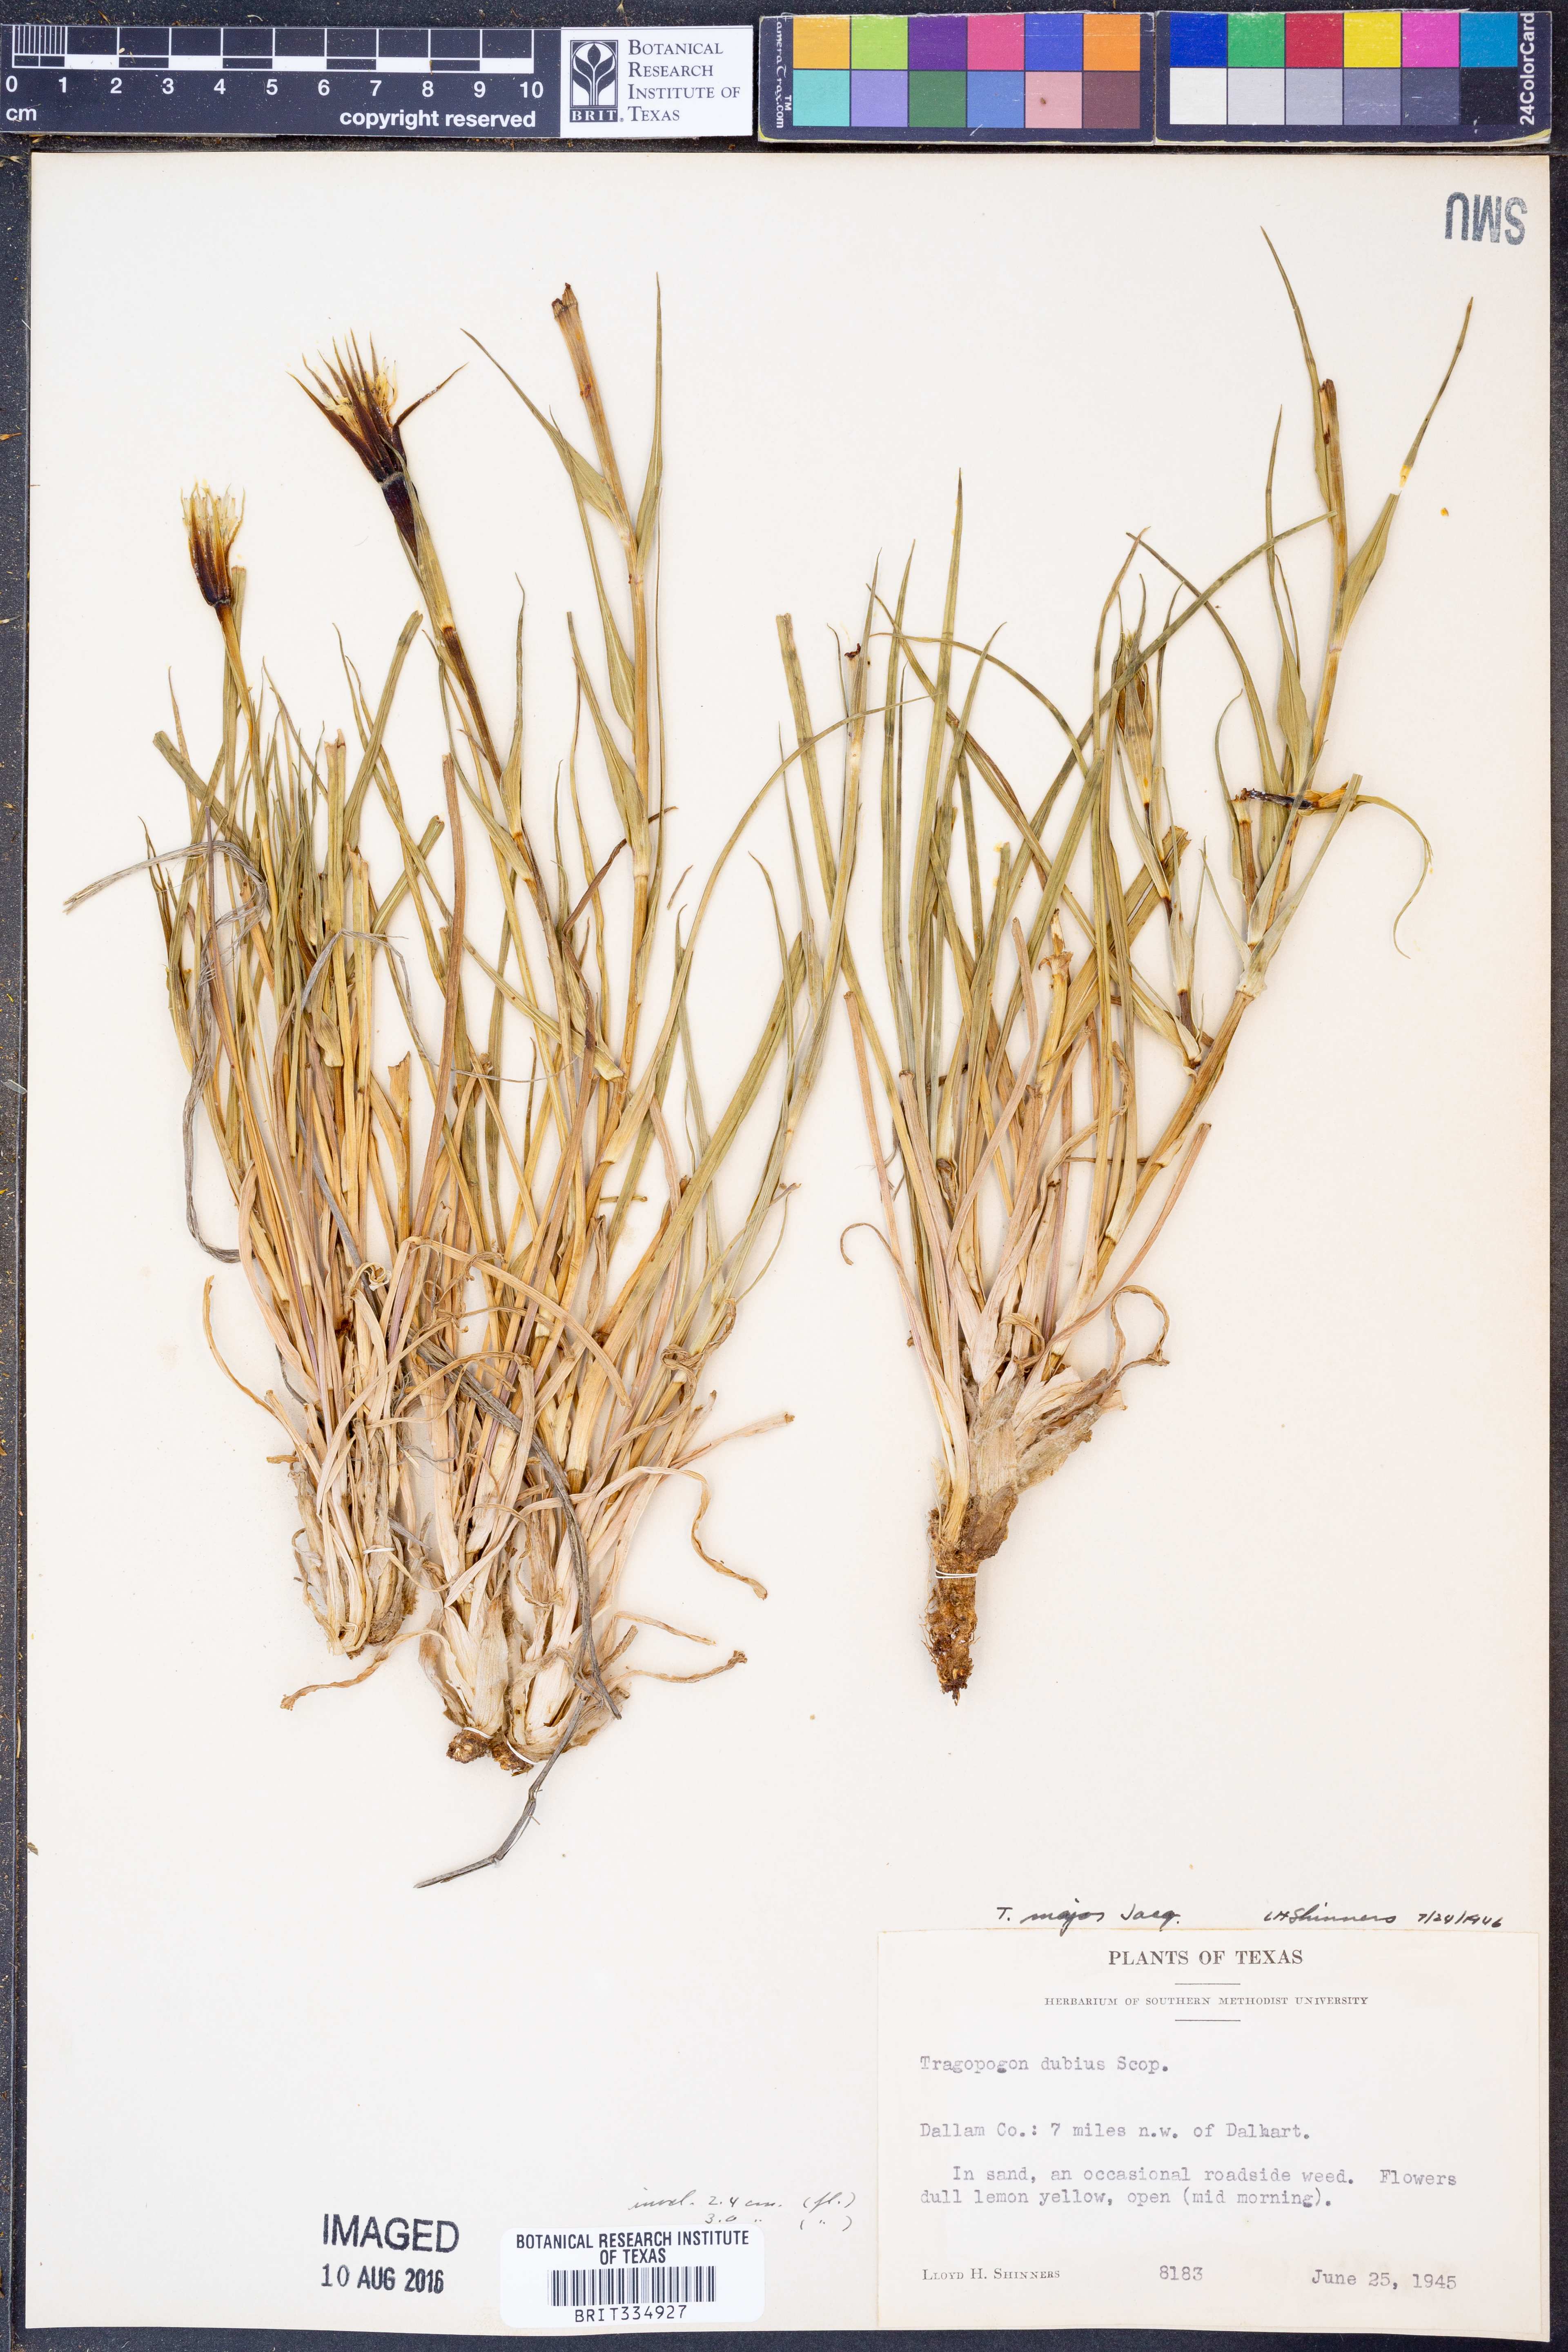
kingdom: Plantae
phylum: Tracheophyta
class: Magnoliopsida
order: Asterales
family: Asteraceae
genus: Tragopogon
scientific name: Tragopogon dubius
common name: Yellow salsify
